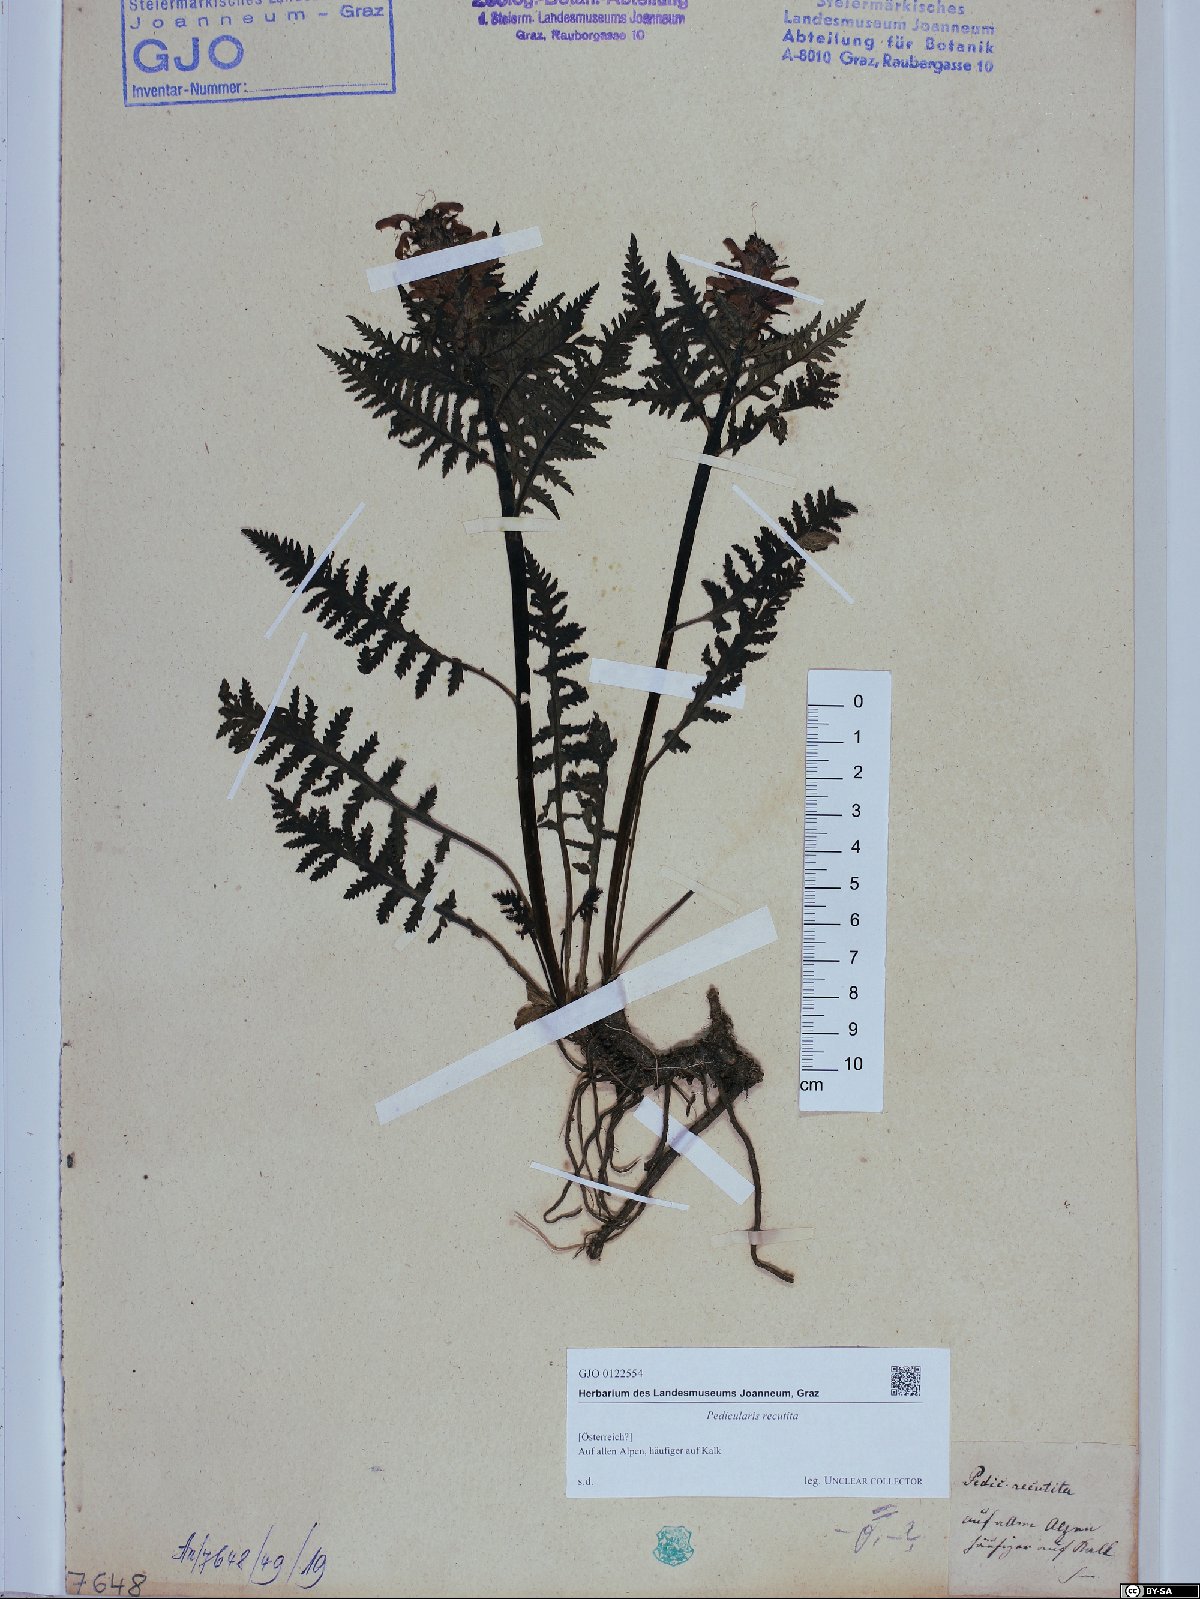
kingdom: Plantae
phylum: Tracheophyta
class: Magnoliopsida
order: Lamiales
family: Orobanchaceae
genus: Pedicularis
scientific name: Pedicularis recutita
